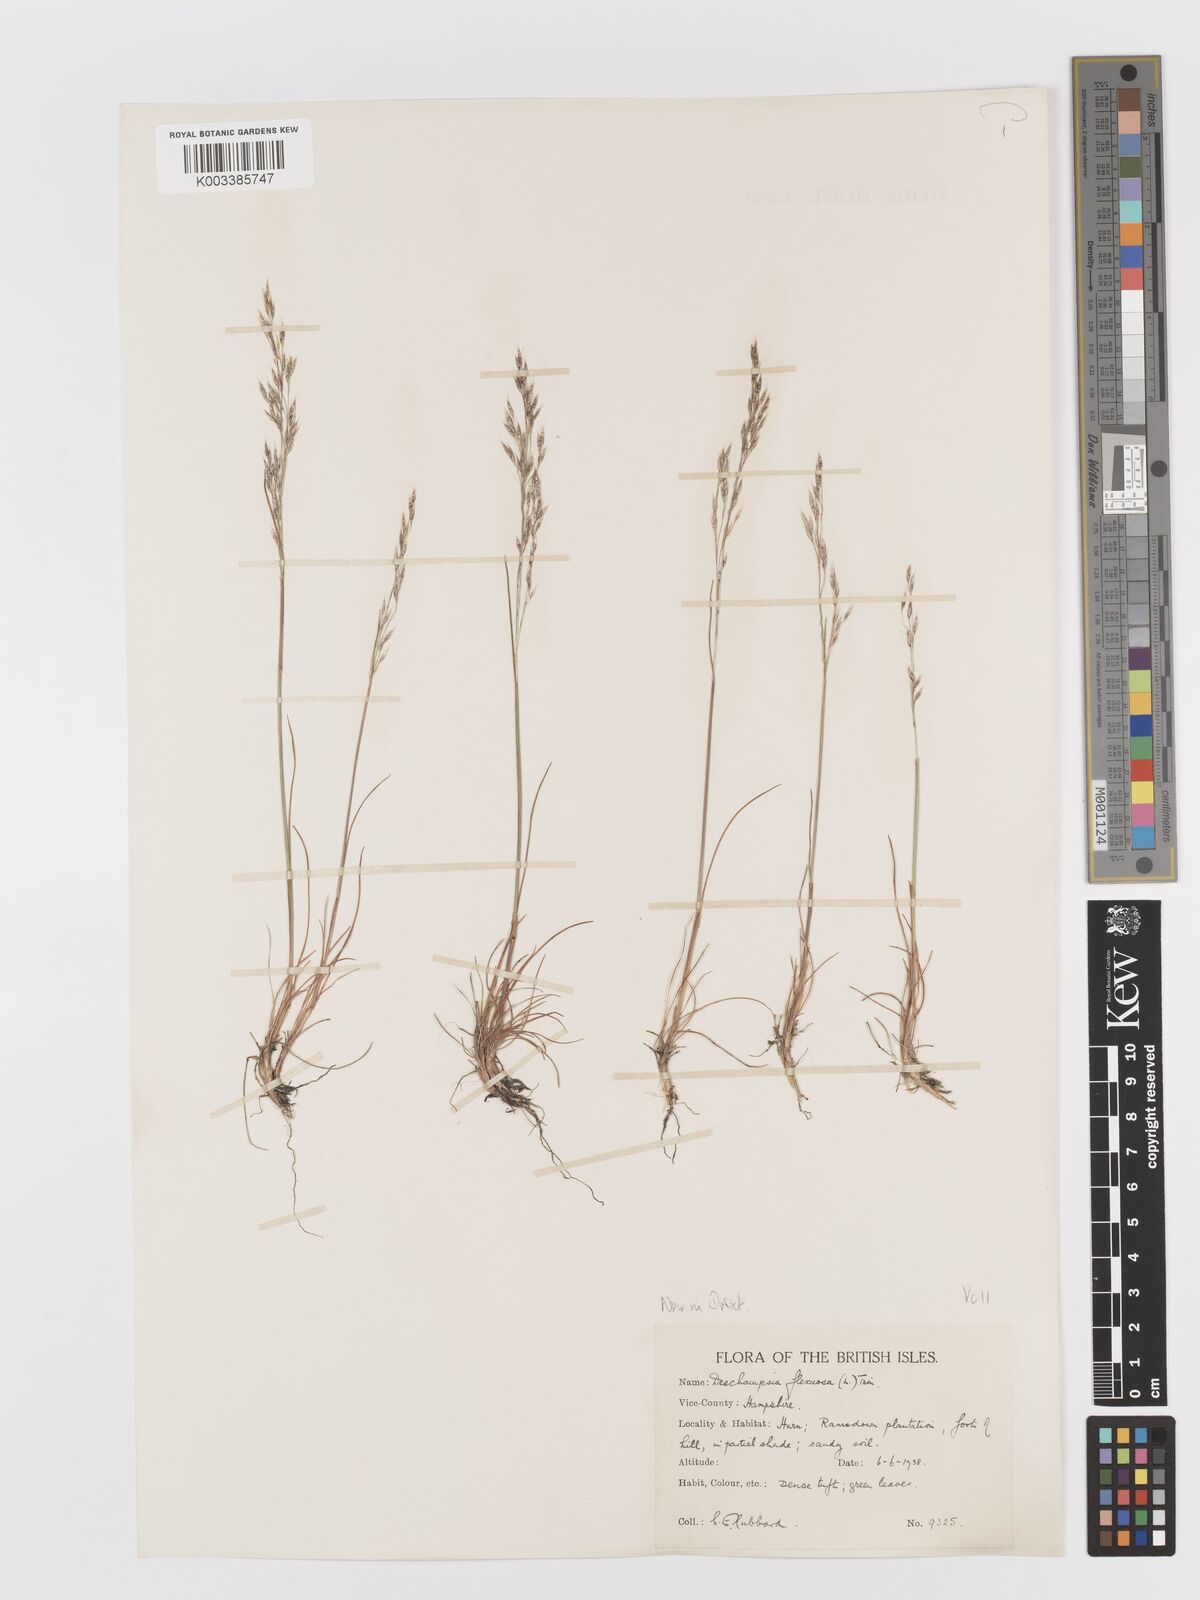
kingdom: Plantae
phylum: Tracheophyta
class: Liliopsida
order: Poales
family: Poaceae
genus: Avenella
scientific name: Avenella flexuosa
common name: Wavy hairgrass
